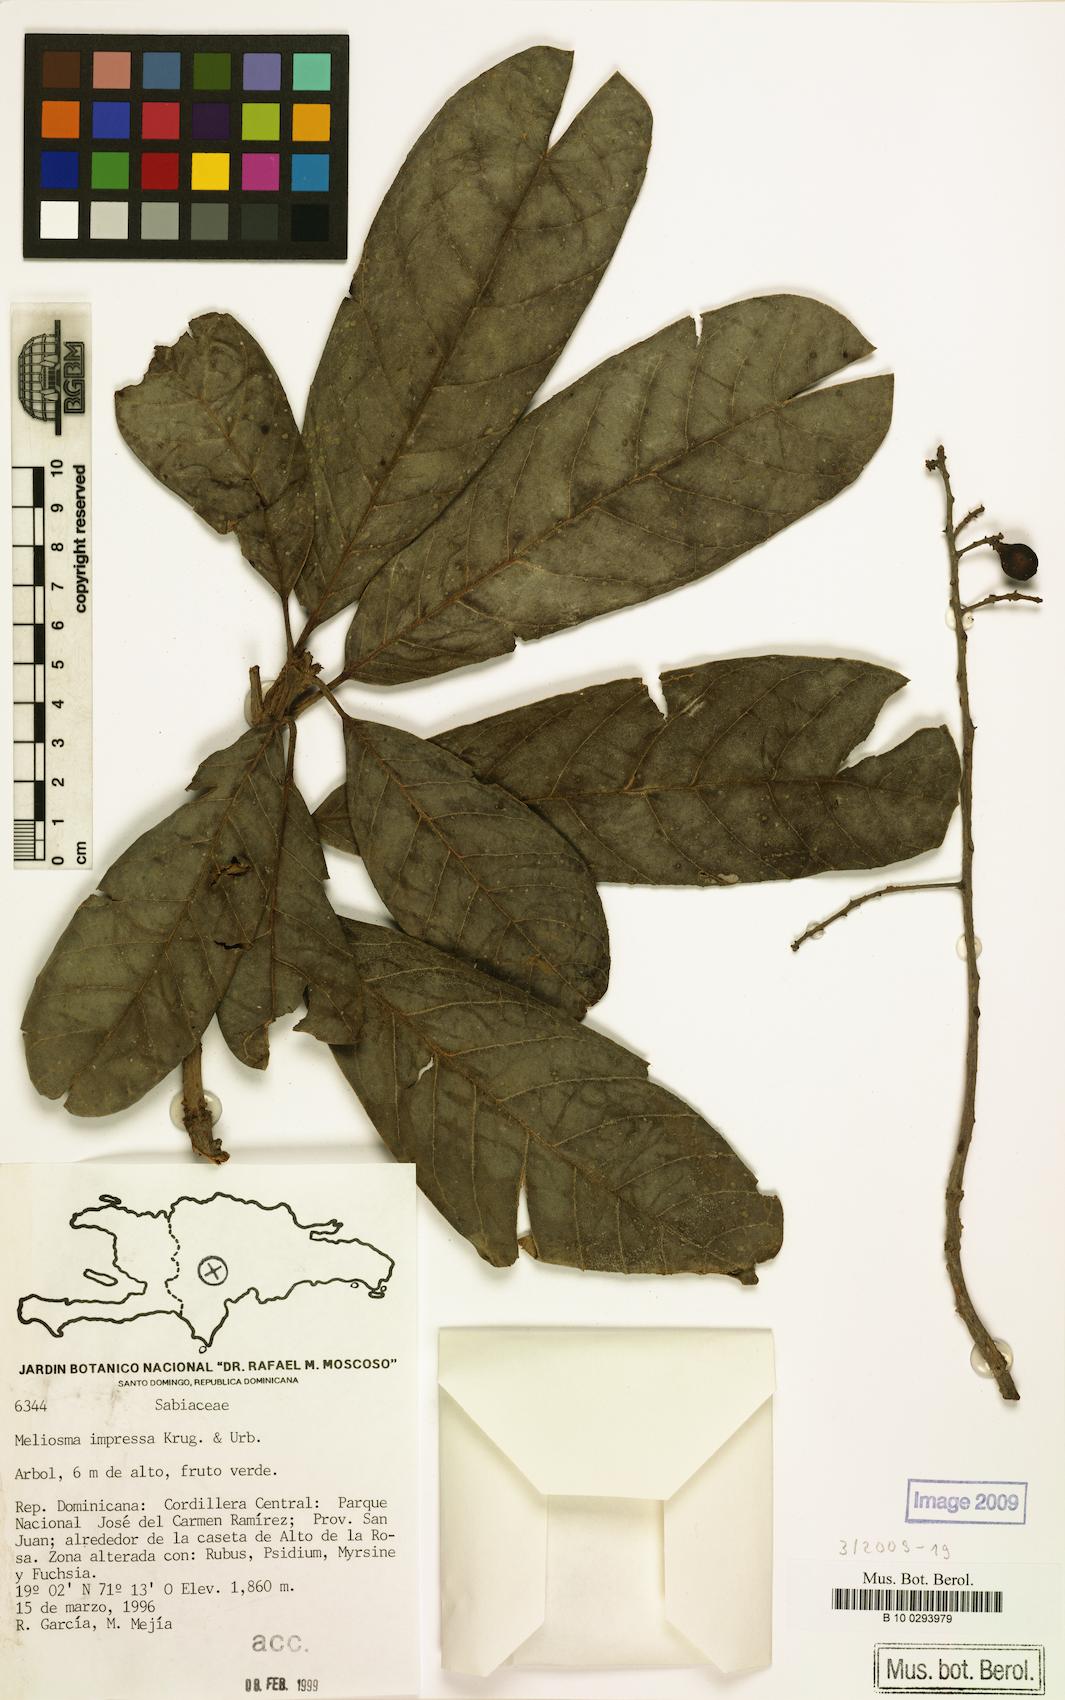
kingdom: Plantae
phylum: Tracheophyta
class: Magnoliopsida
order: Proteales
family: Sabiaceae
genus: Meliosma
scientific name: Meliosma impressa
